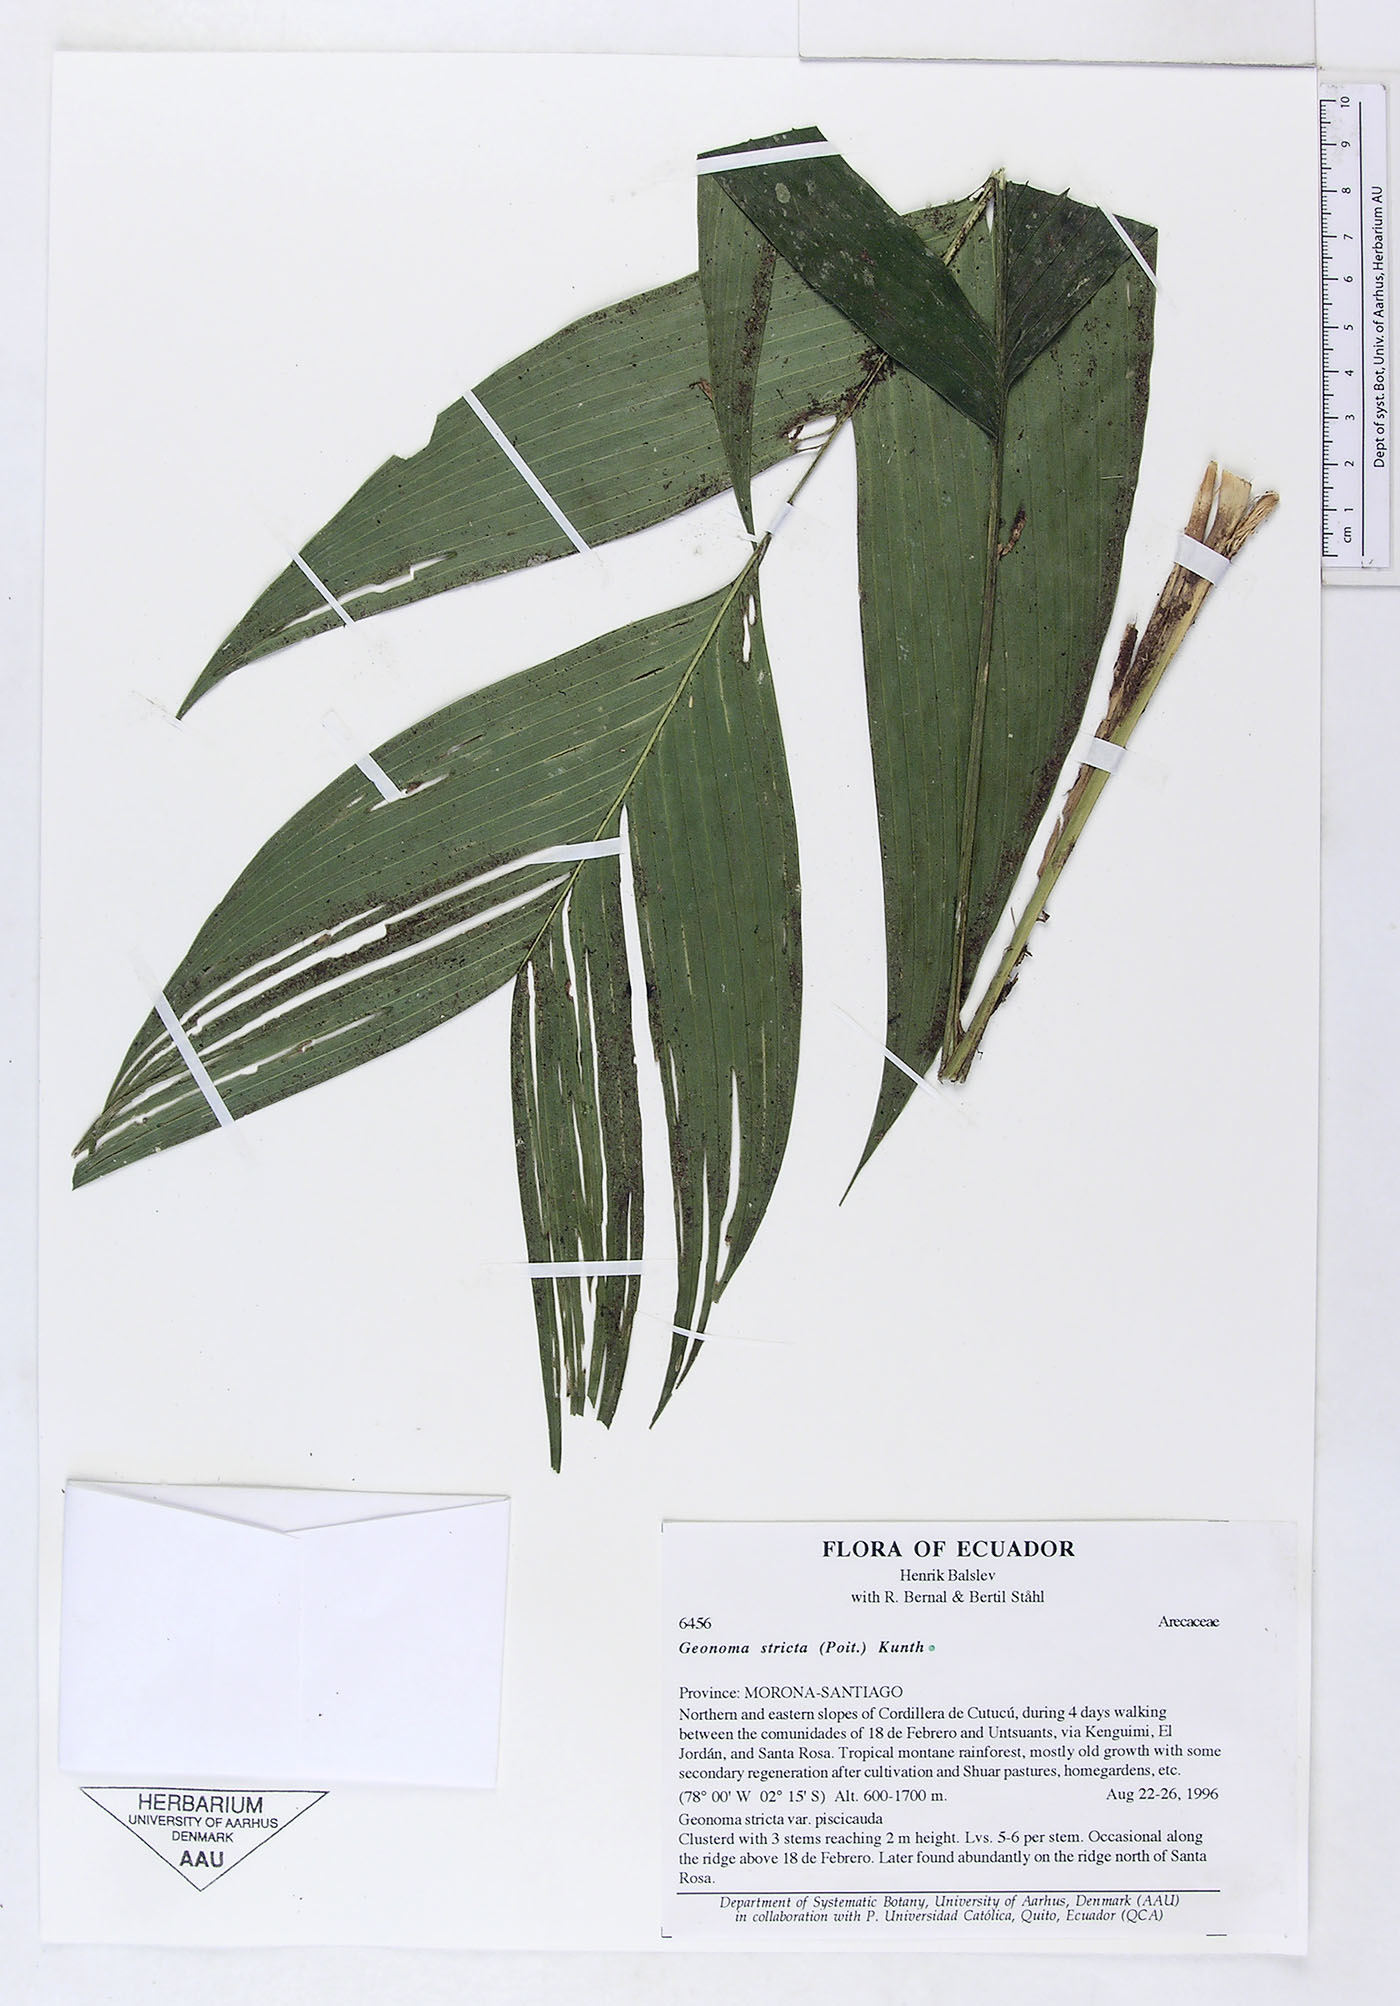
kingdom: Plantae
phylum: Tracheophyta
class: Liliopsida
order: Arecales
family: Arecaceae
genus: Geonoma
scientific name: Geonoma stricta
